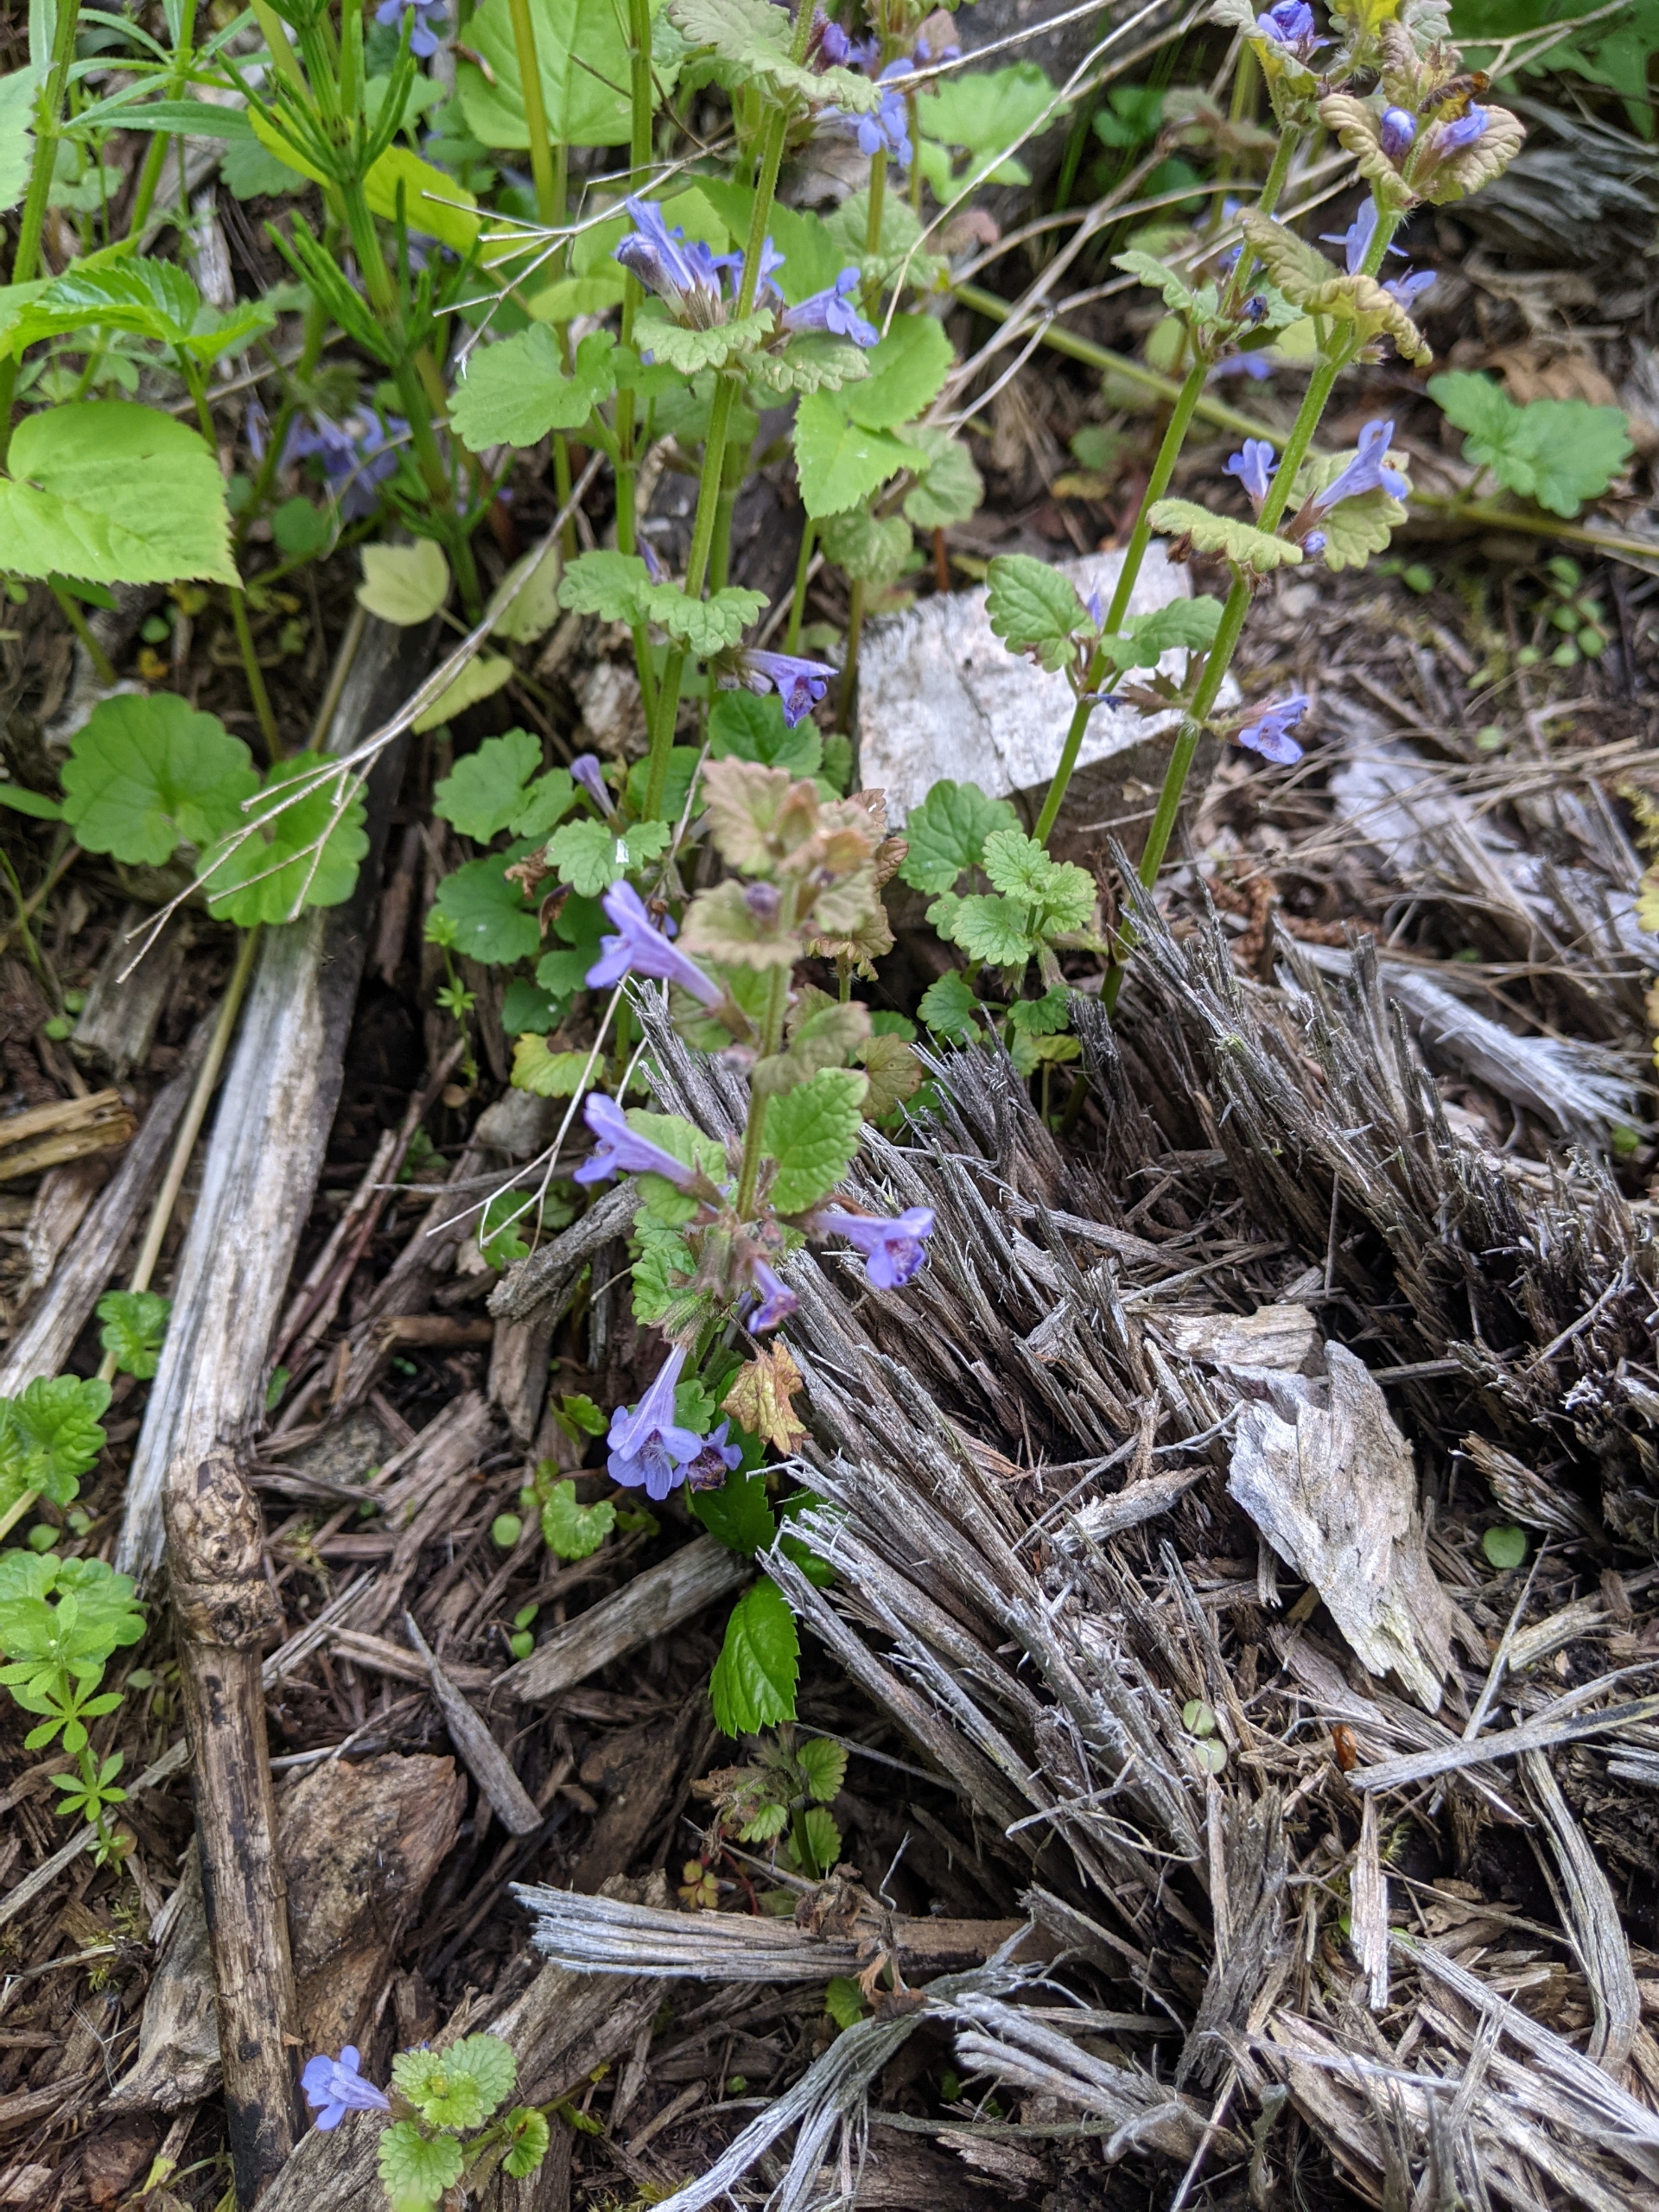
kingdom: Plantae
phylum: Tracheophyta
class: Magnoliopsida
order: Lamiales
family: Lamiaceae
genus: Glechoma
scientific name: Glechoma hederacea
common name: Korsknap
